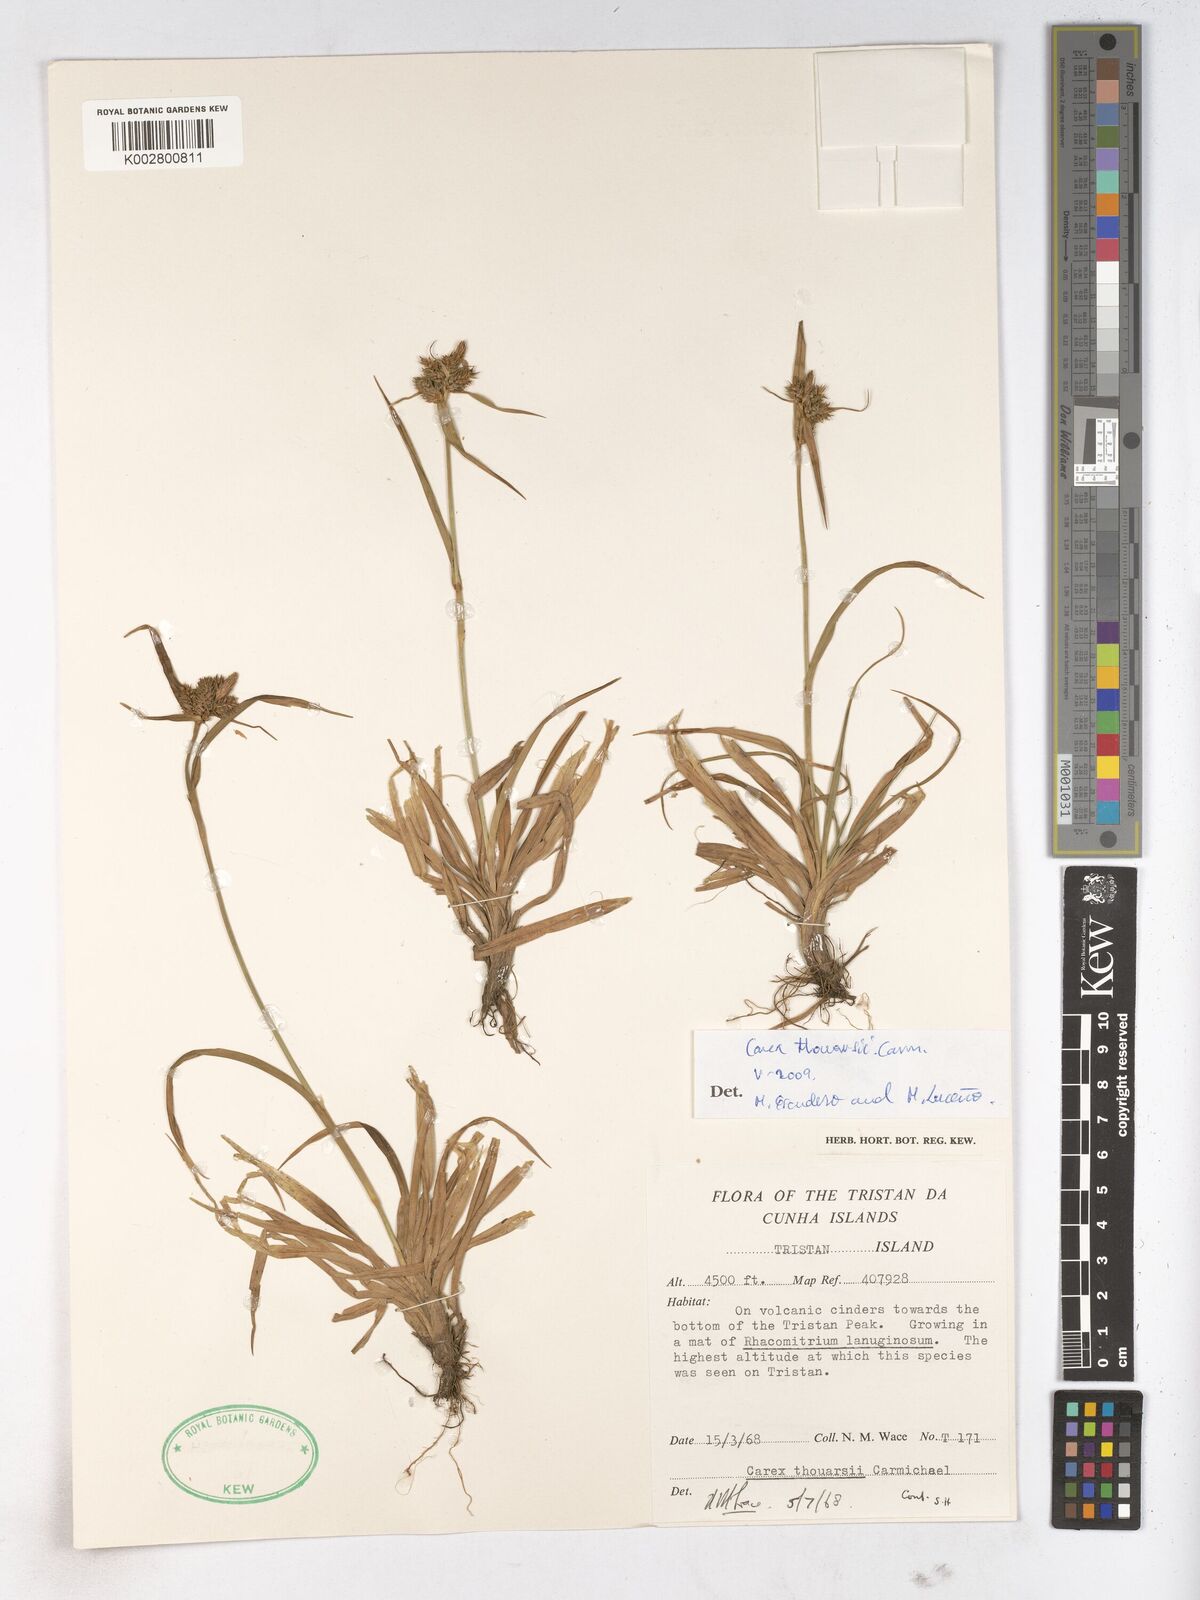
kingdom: Plantae
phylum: Tracheophyta
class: Liliopsida
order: Poales
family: Cyperaceae
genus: Carex
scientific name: Carex thouarsii
